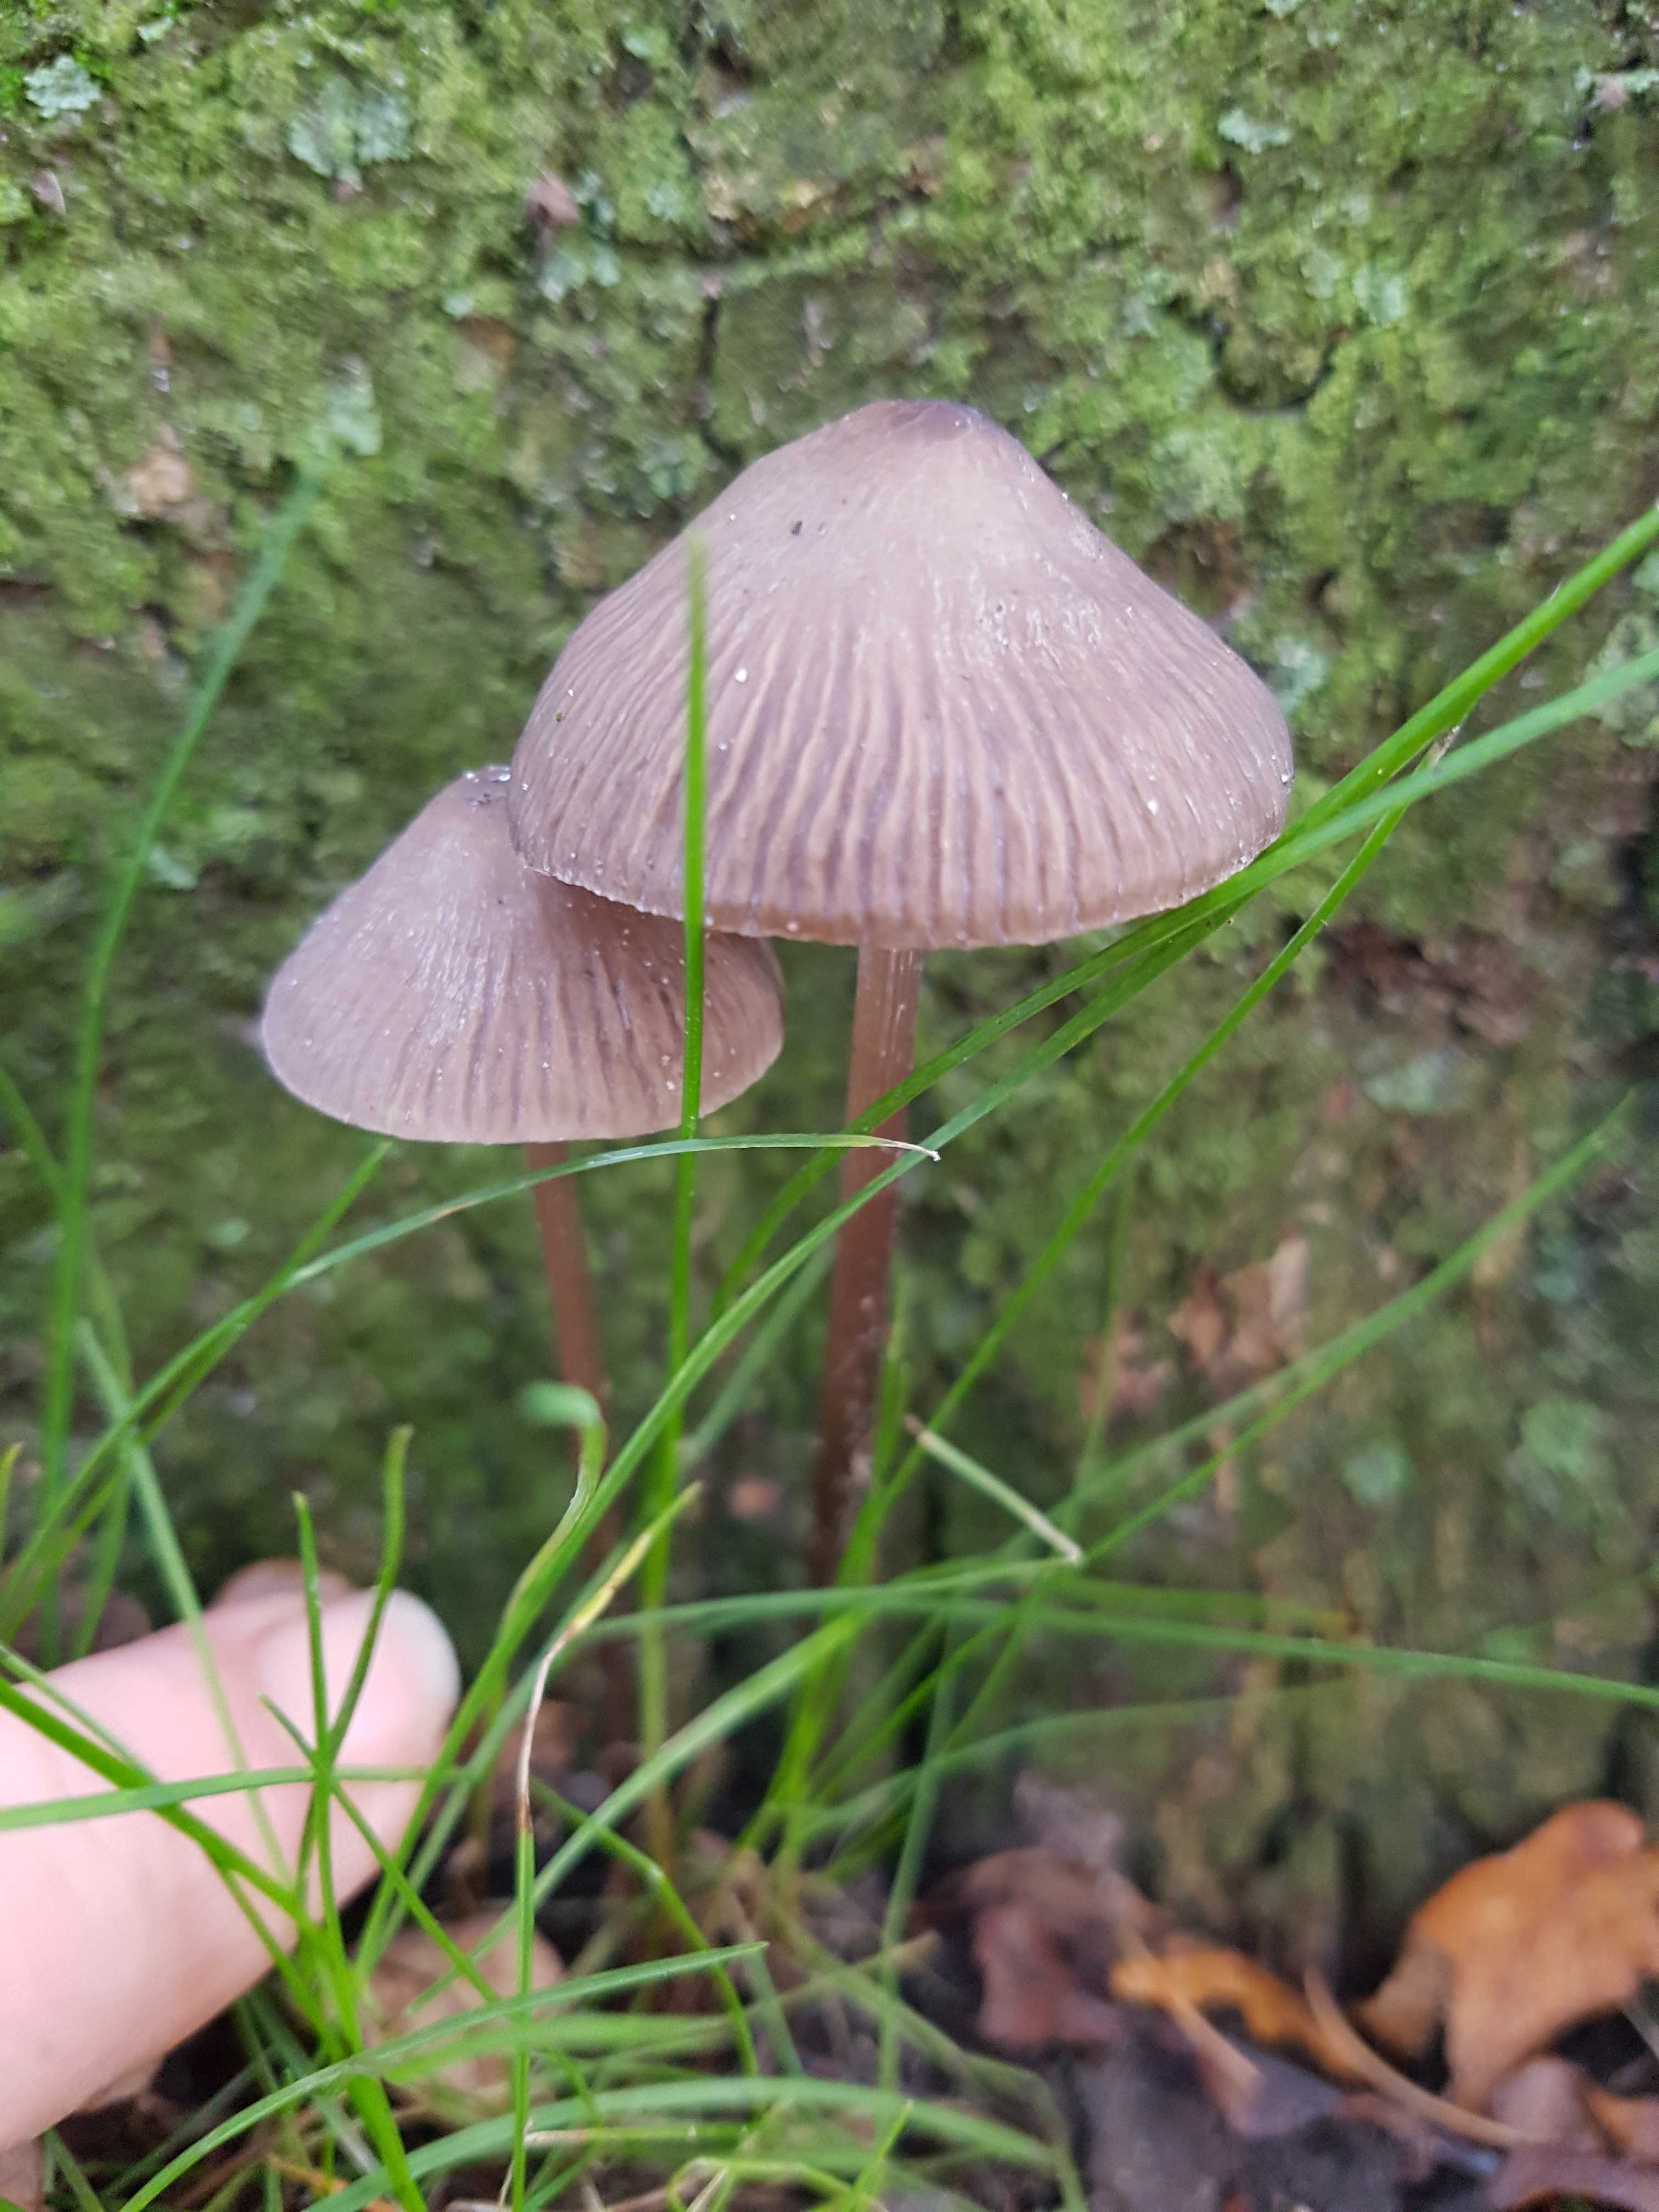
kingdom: Fungi
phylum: Basidiomycota
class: Agaricomycetes
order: Agaricales
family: Mycenaceae
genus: Mycena
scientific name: Mycena polygramma
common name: mangestribet huesvamp
